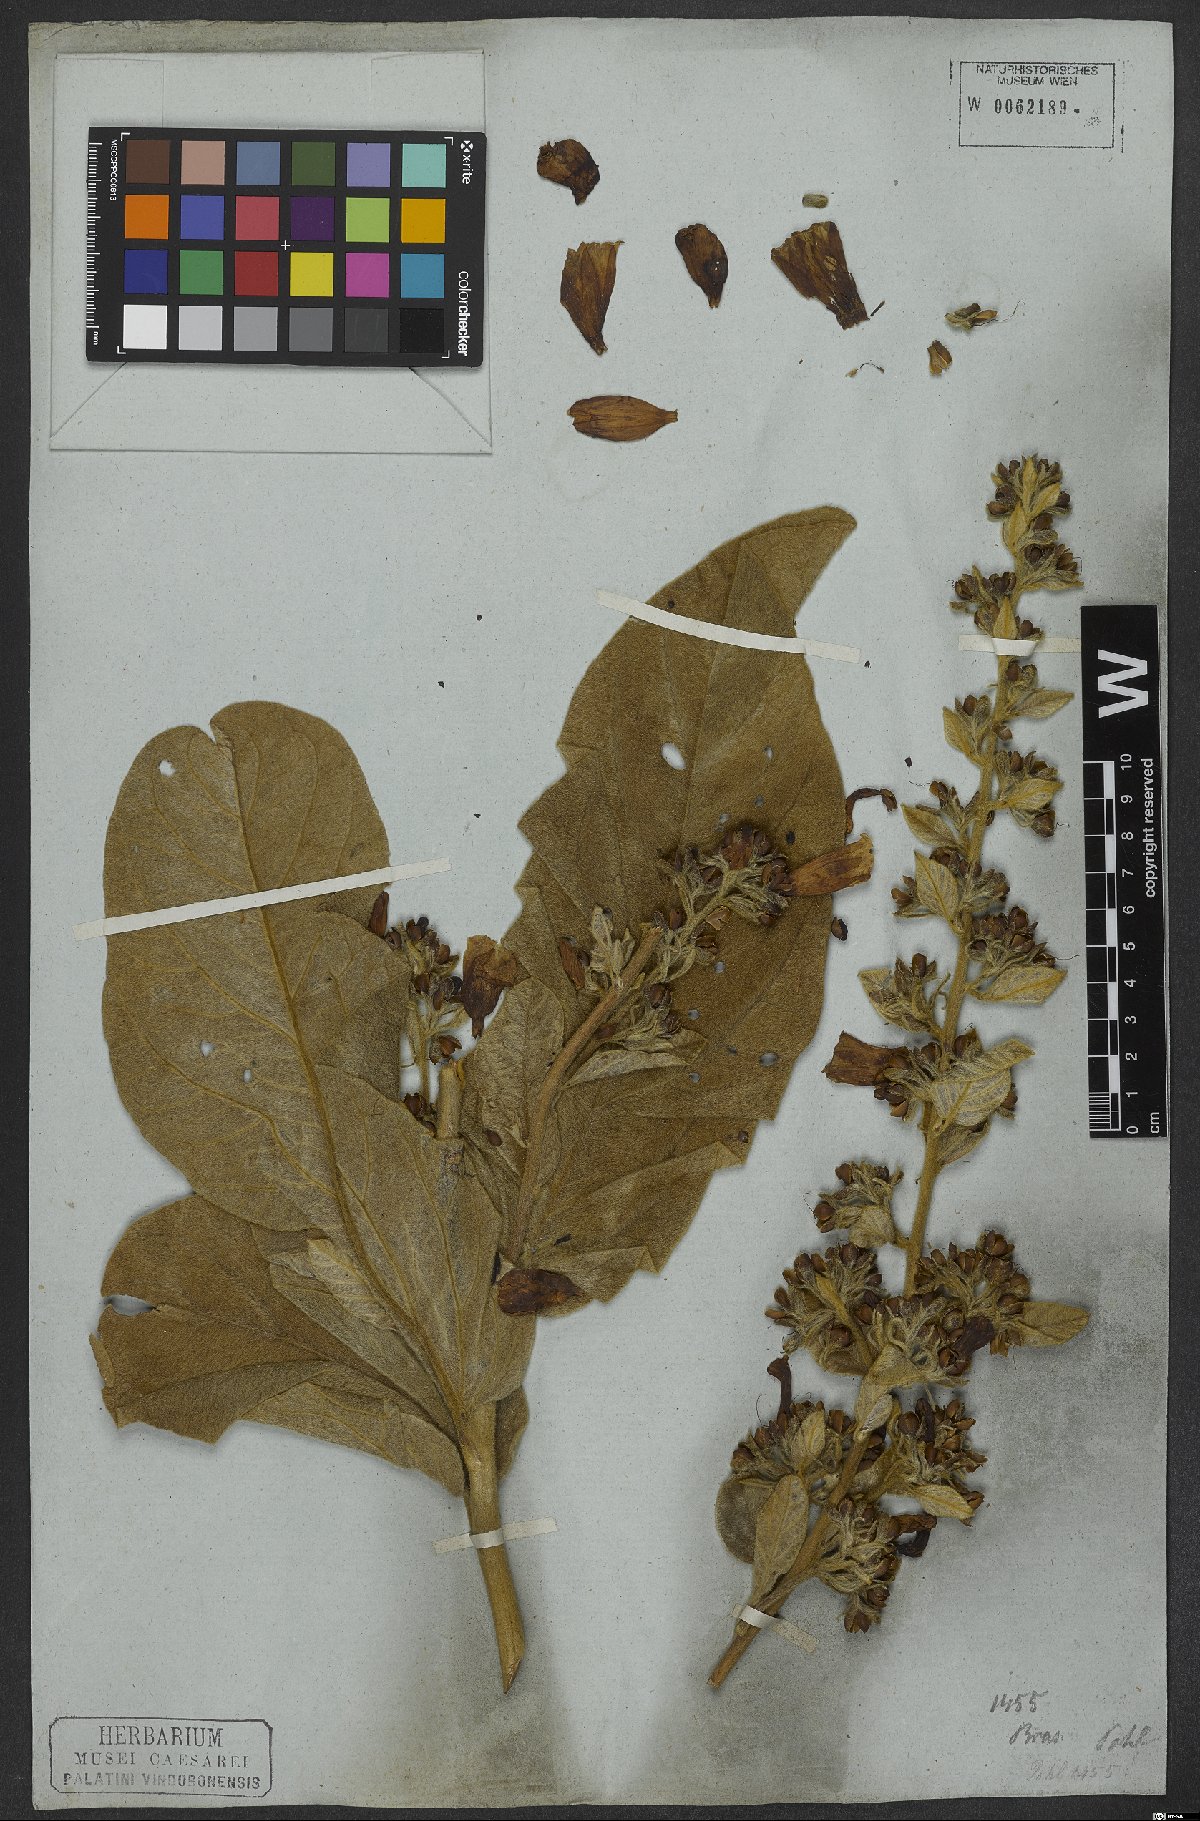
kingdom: Plantae
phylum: Tracheophyta
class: Magnoliopsida
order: Solanales
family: Convolvulaceae
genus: Ipomoea
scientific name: Ipomoea argentea
